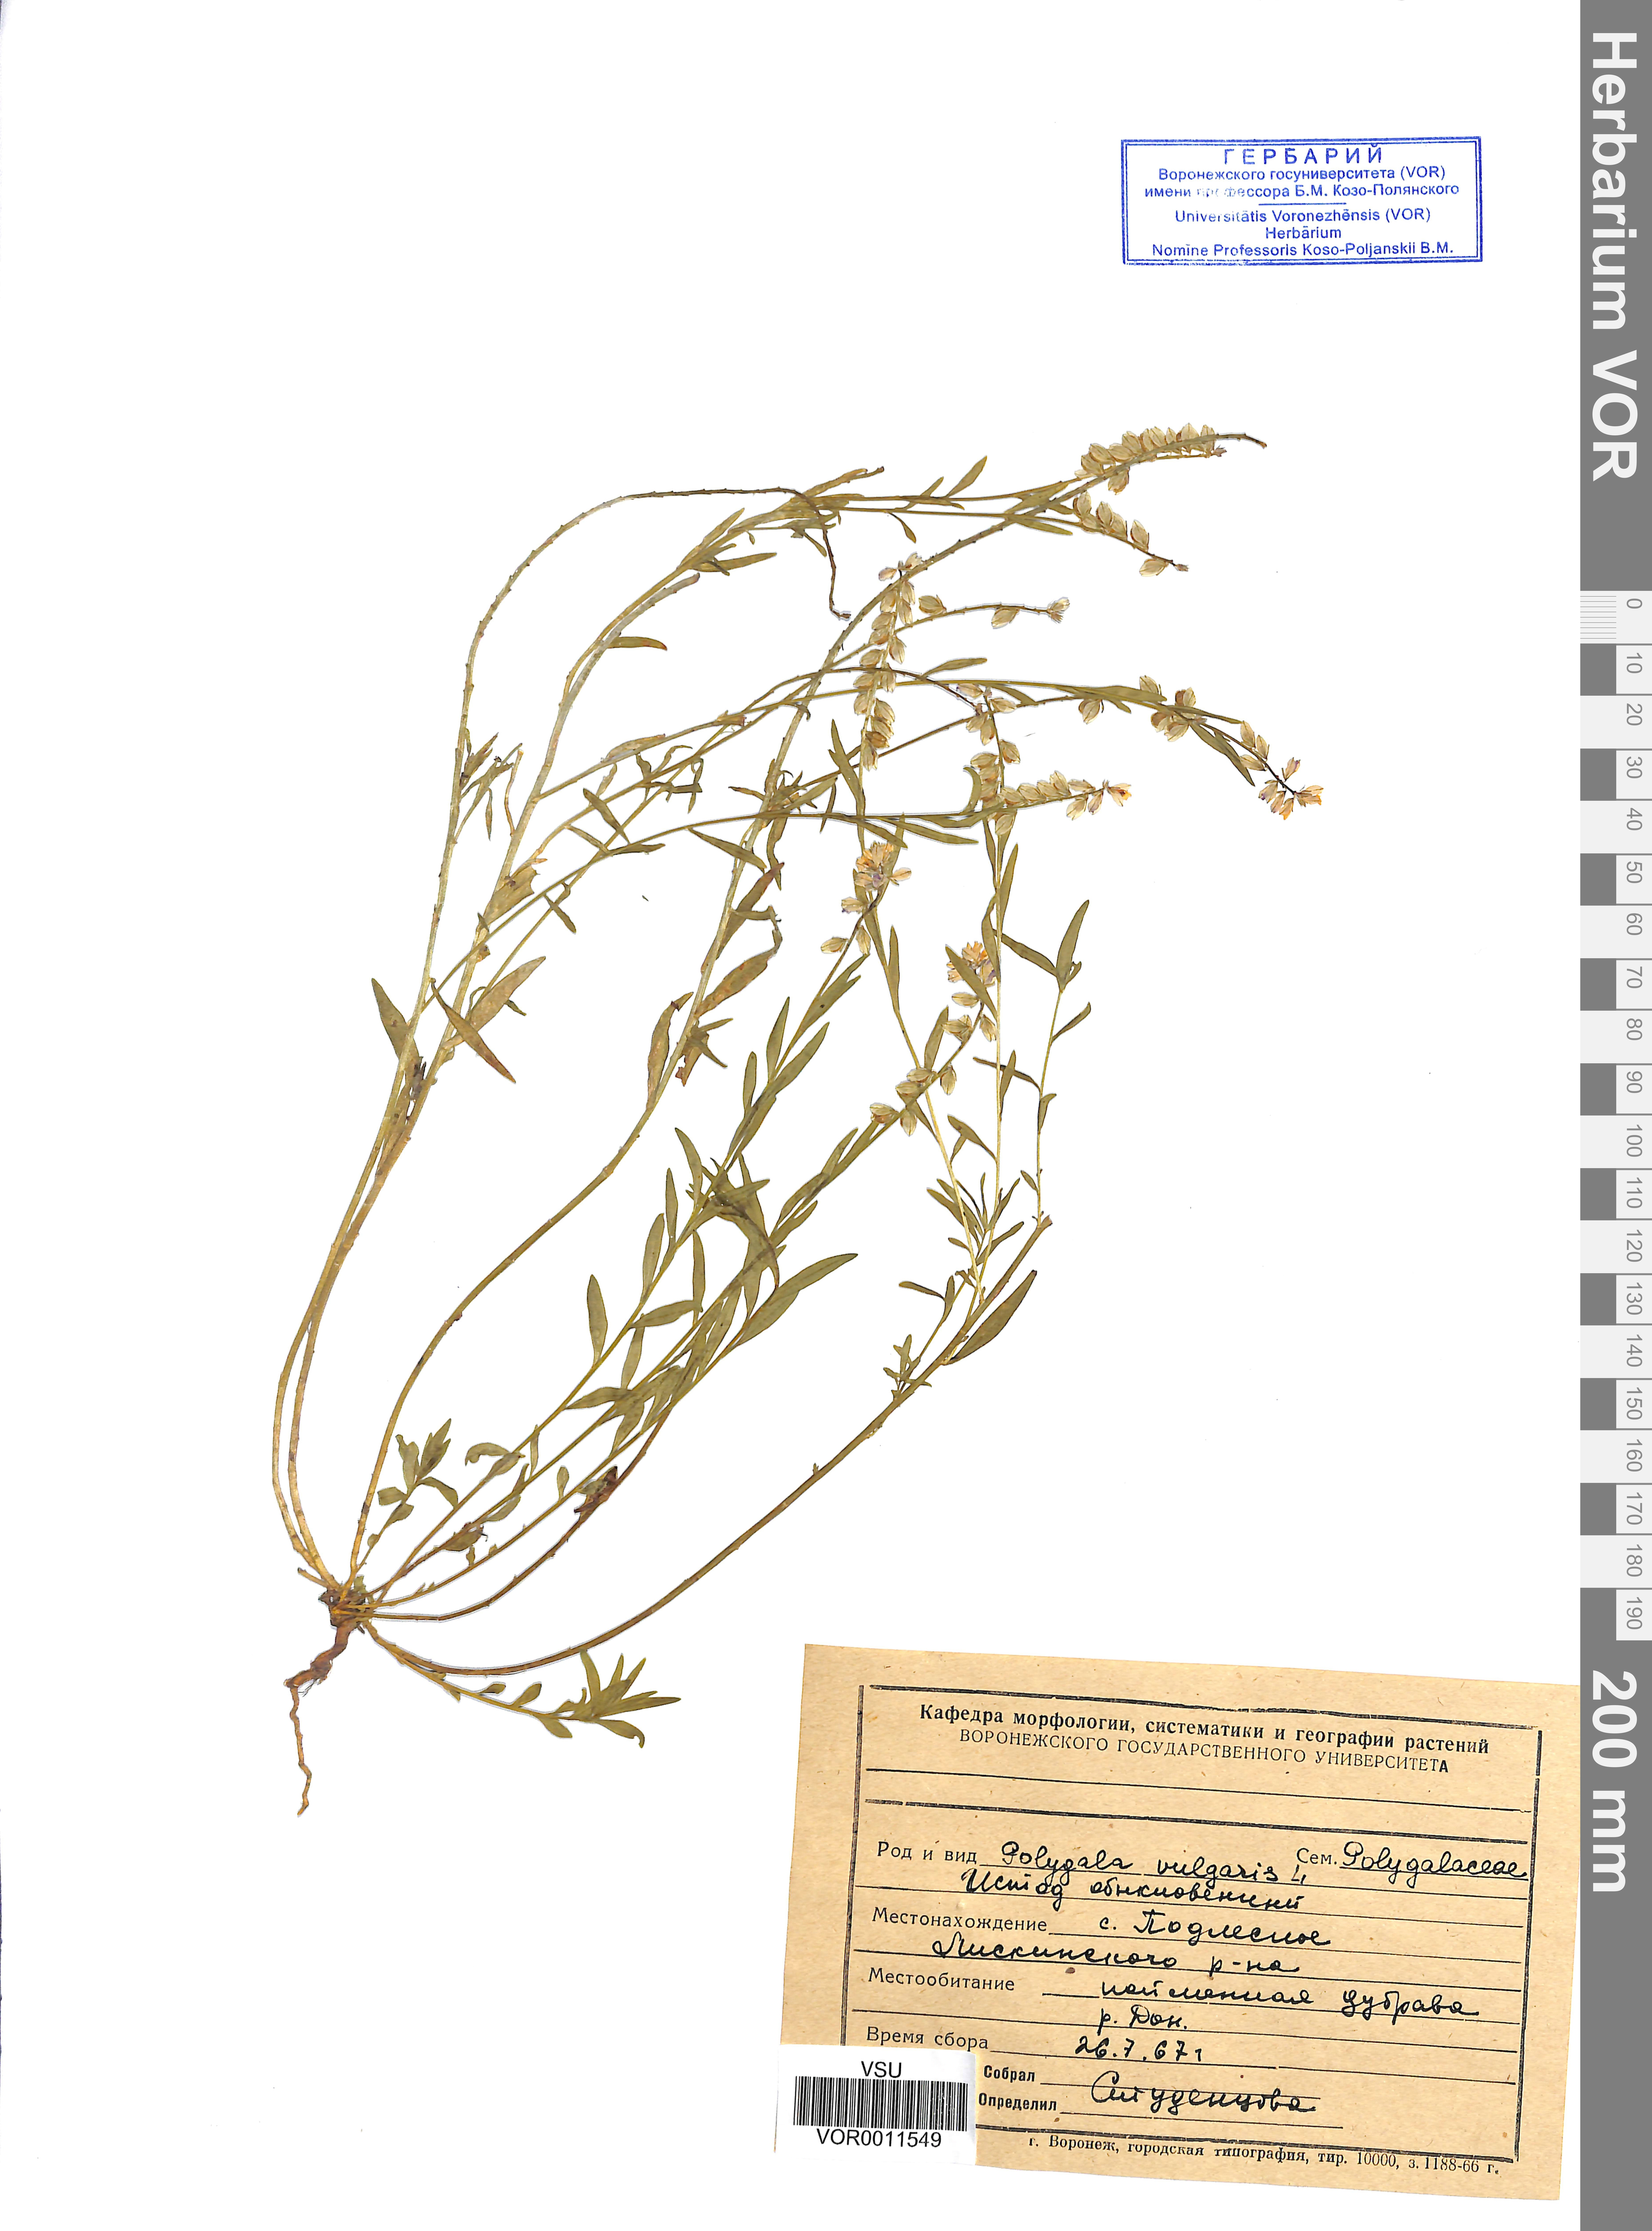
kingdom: Plantae
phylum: Tracheophyta
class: Magnoliopsida
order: Fabales
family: Polygalaceae
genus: Polygala
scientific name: Polygala vulgaris
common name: Common milkwort
